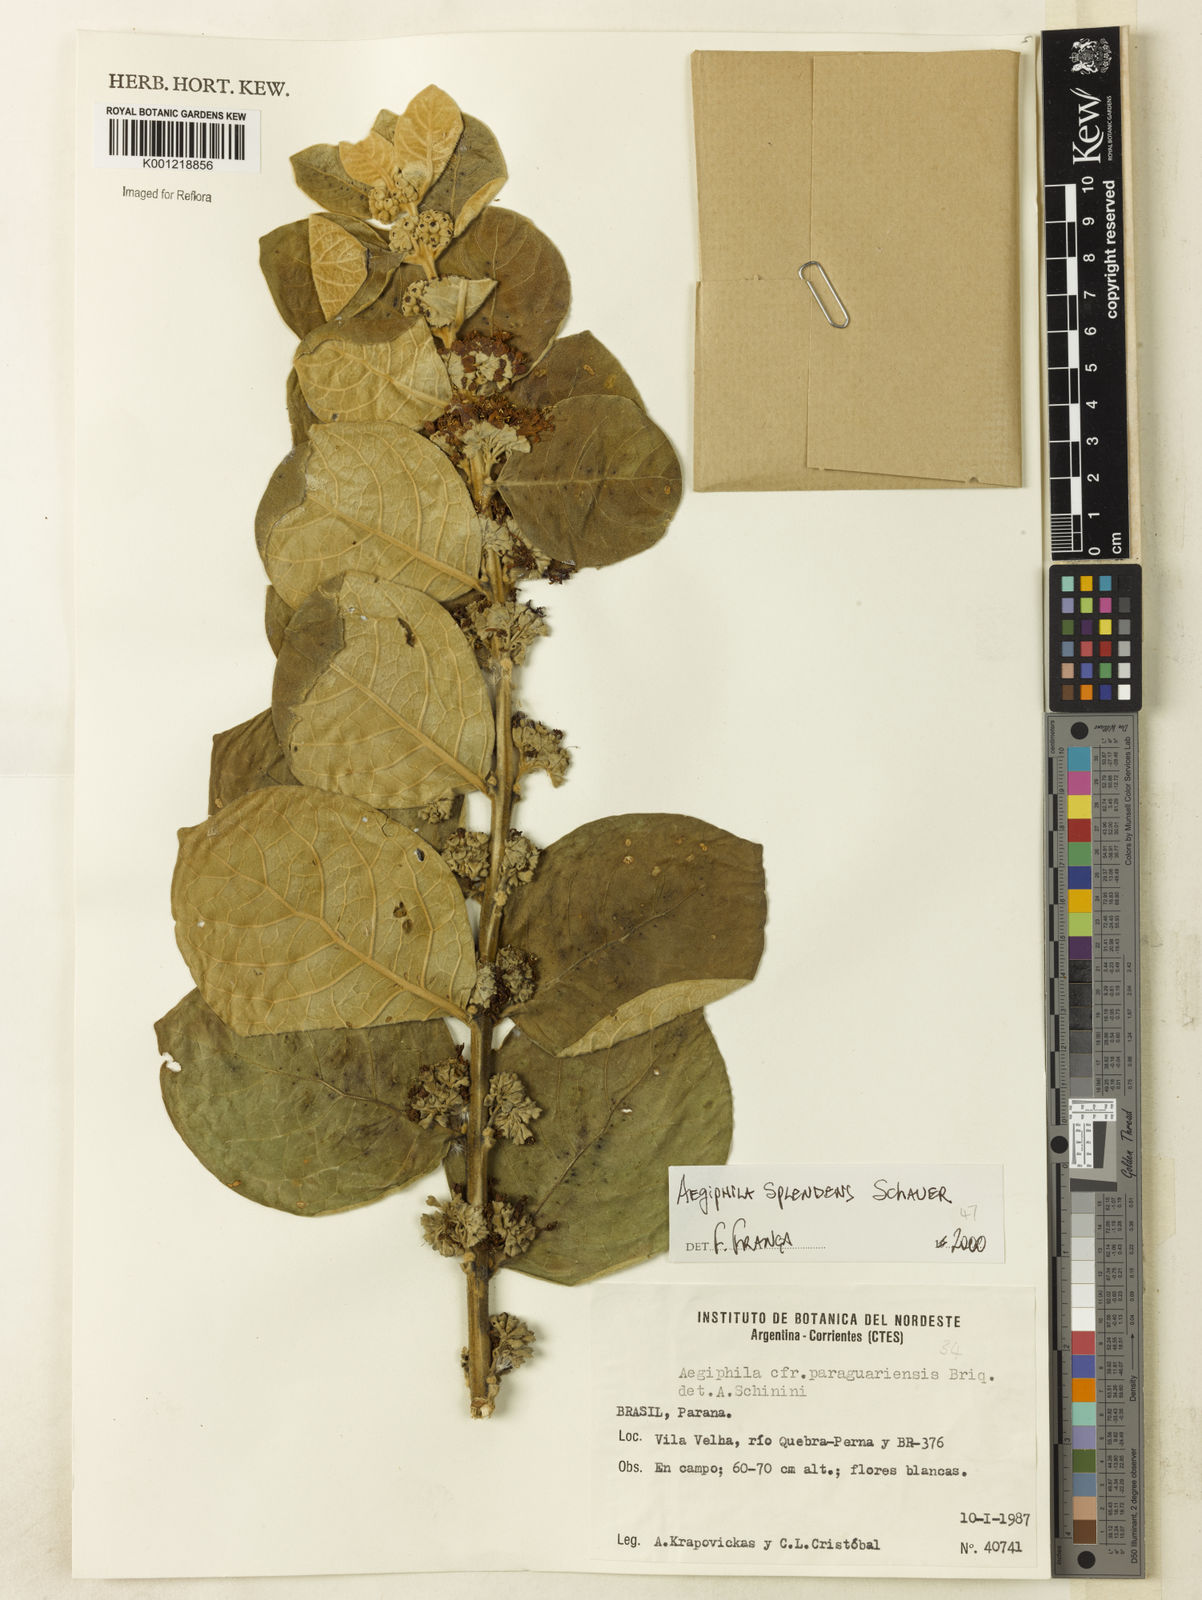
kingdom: Plantae
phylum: Tracheophyta
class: Magnoliopsida
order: Lamiales
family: Lamiaceae
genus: Aegiphila
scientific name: Aegiphila verticillata
